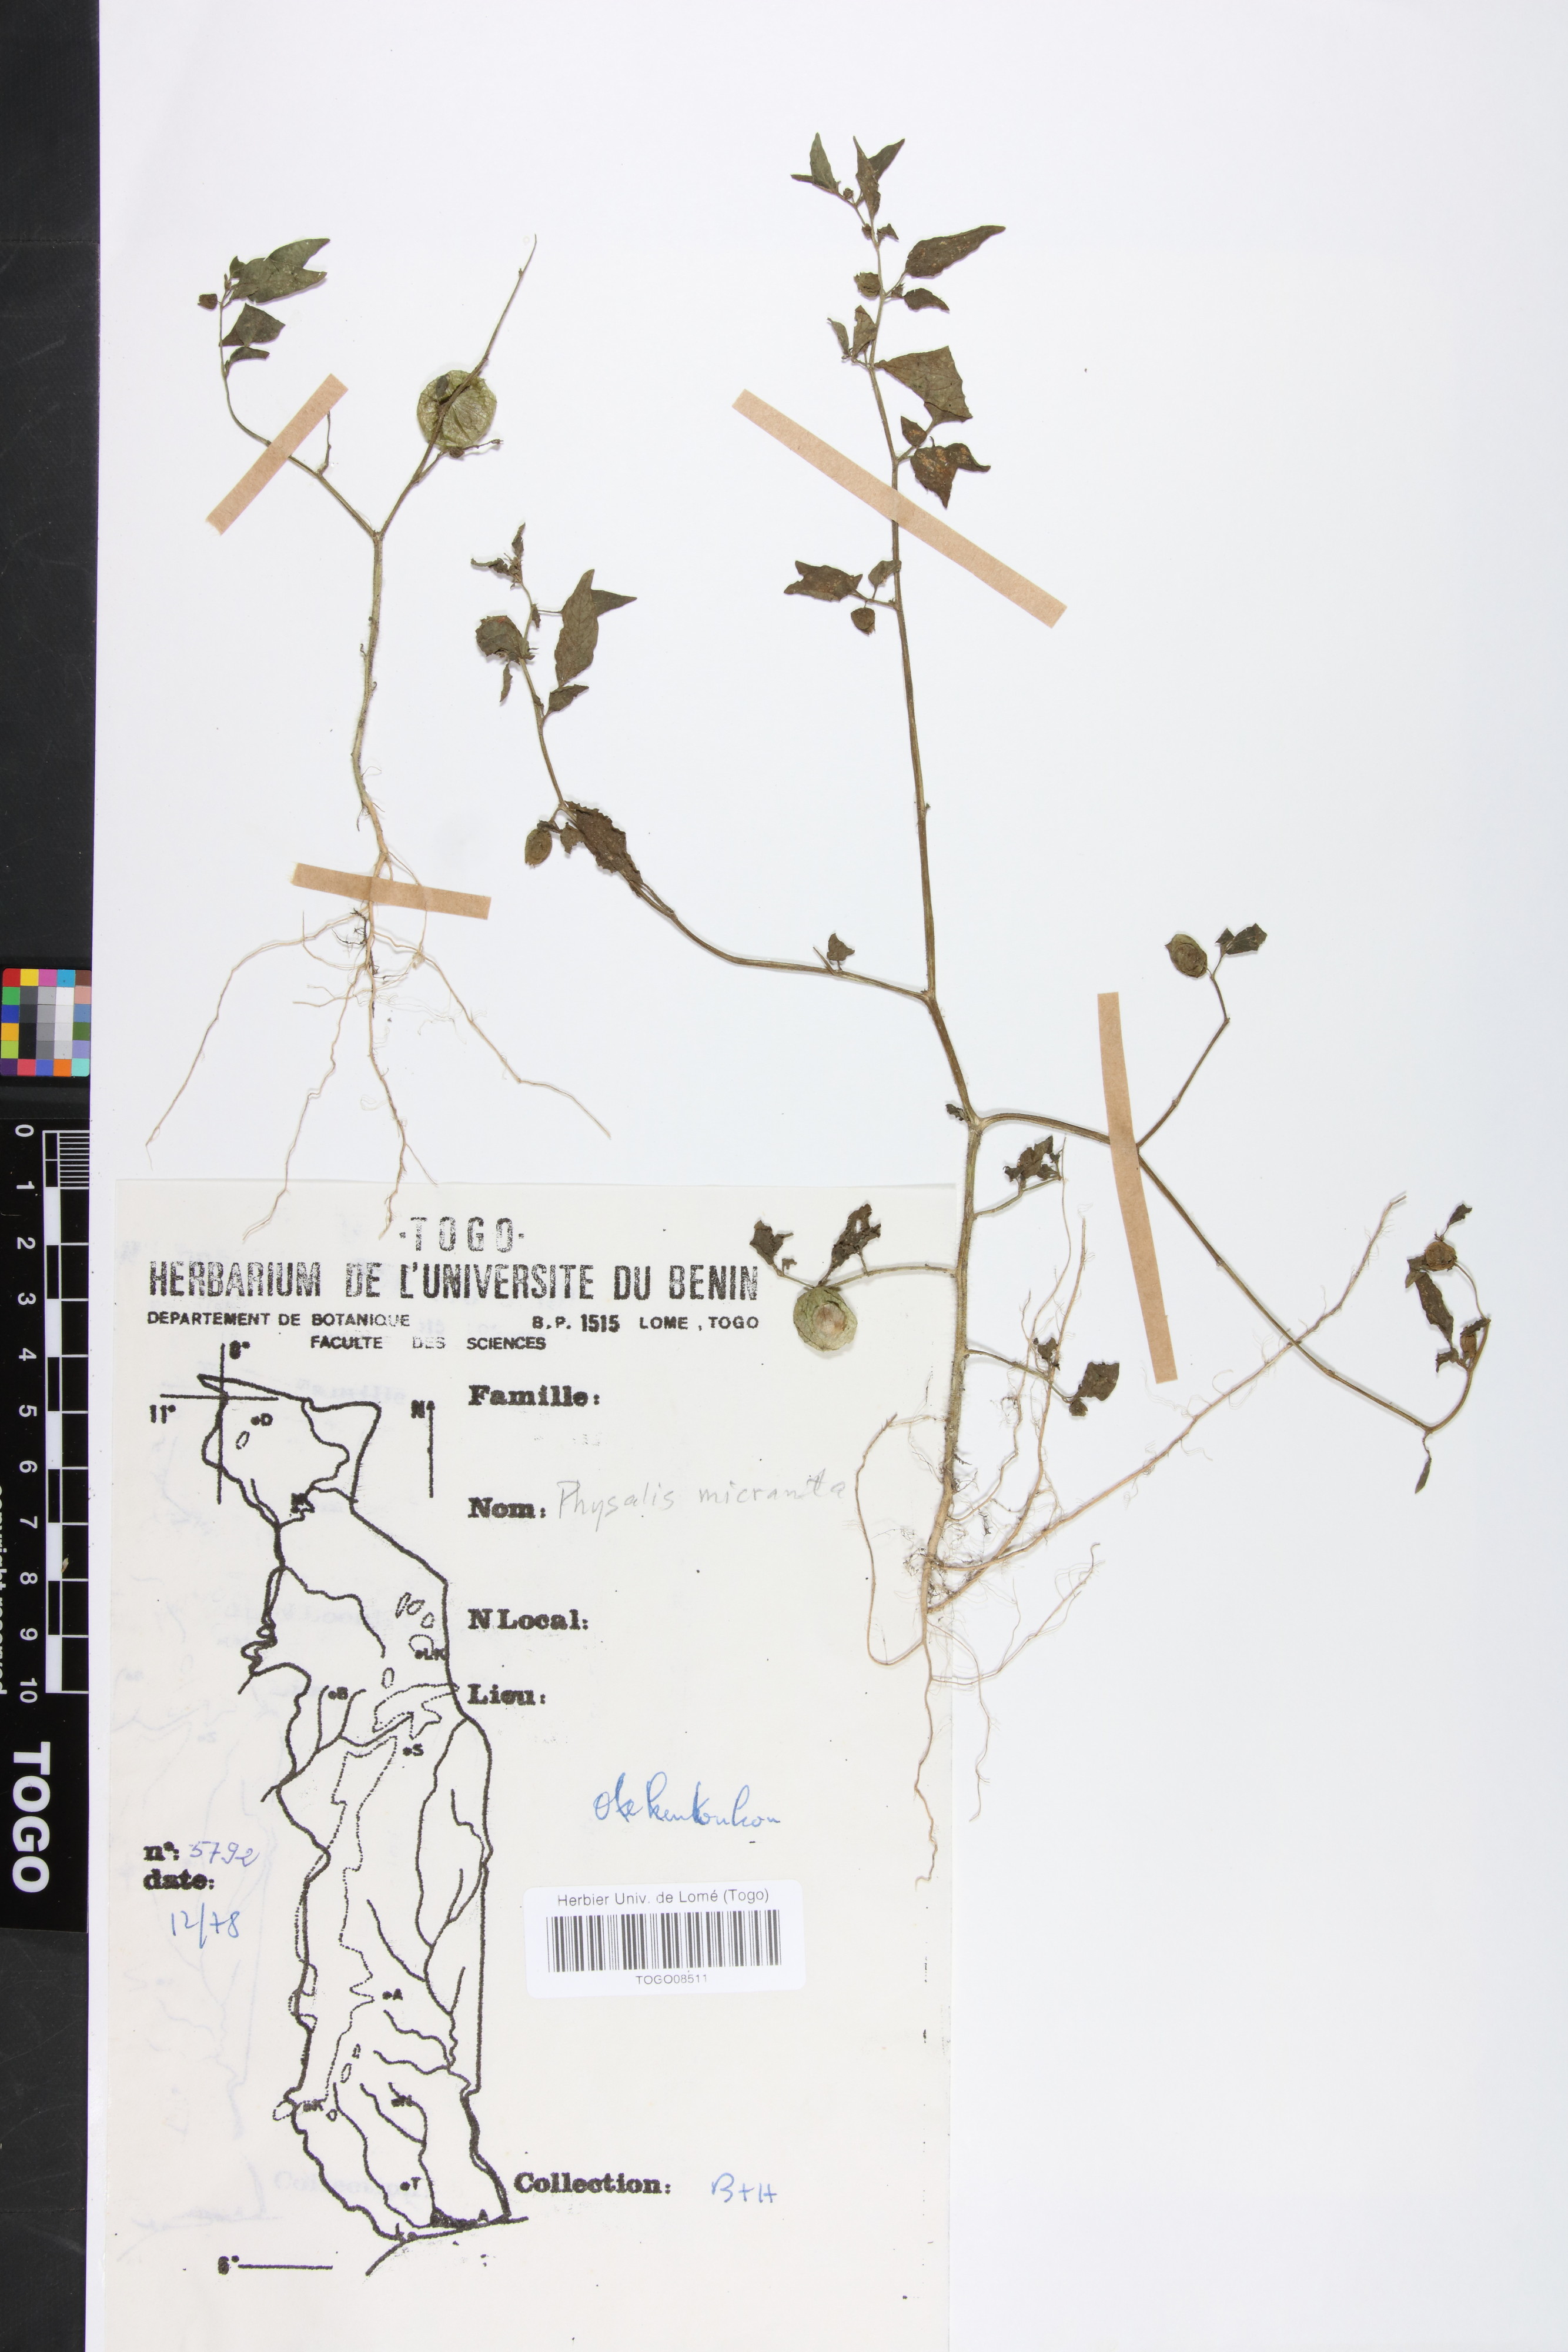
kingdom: Plantae
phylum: Tracheophyta
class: Magnoliopsida
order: Solanales
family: Solanaceae
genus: Physalis
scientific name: Physalis lagascae
